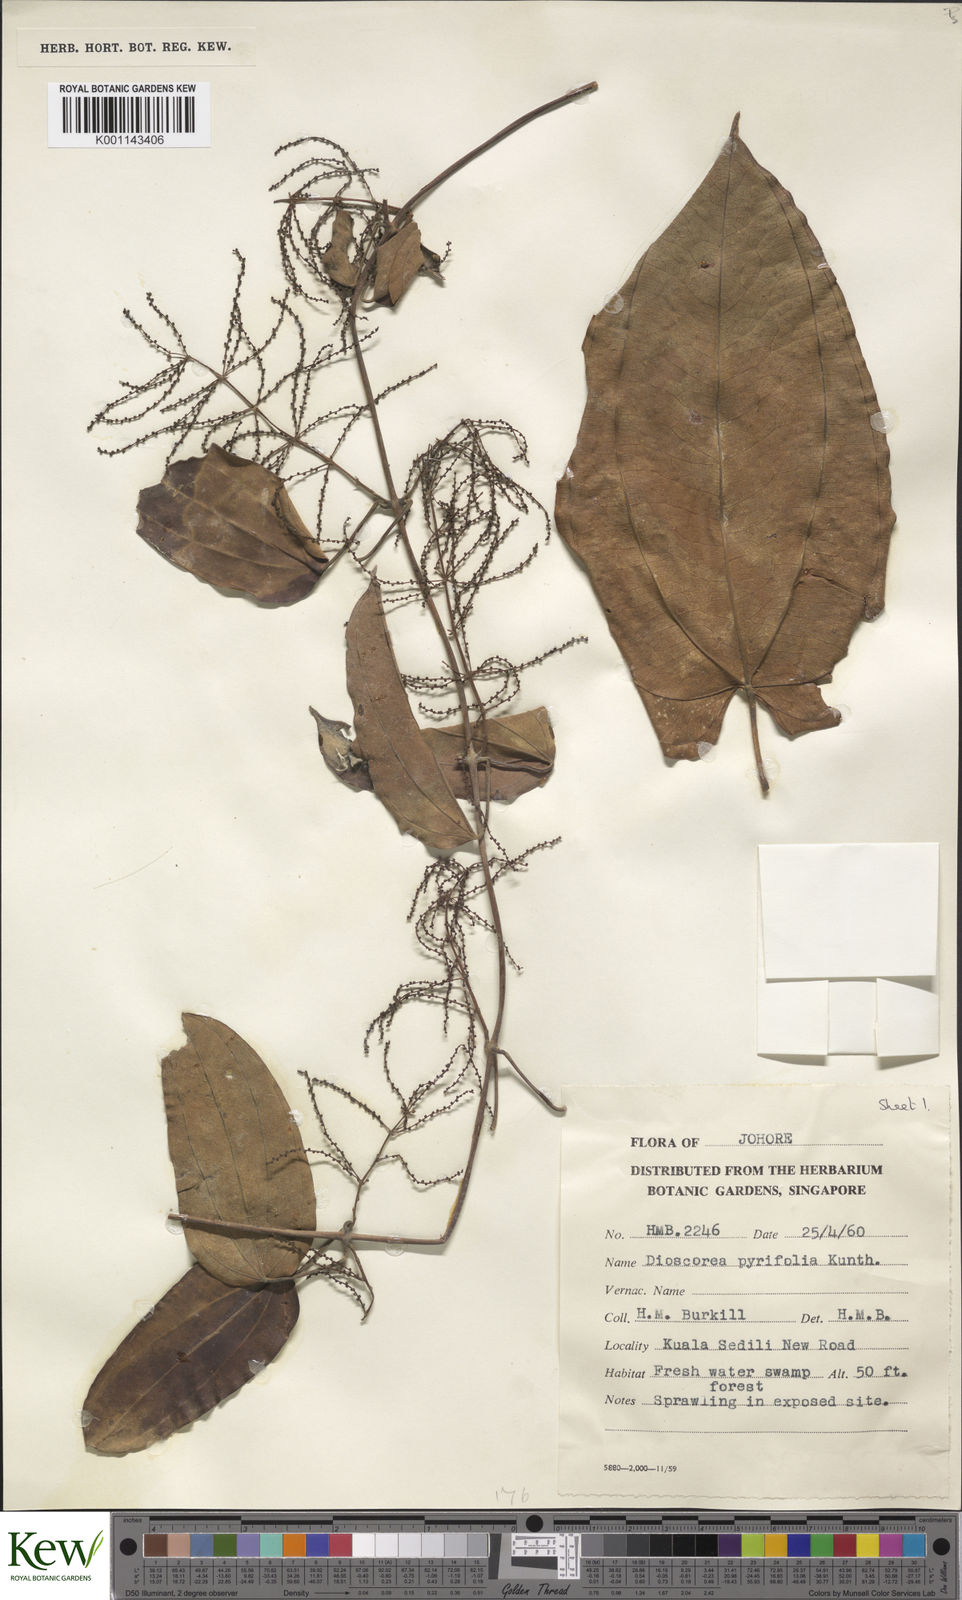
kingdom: Plantae
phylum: Tracheophyta
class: Liliopsida
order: Dioscoreales
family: Dioscoreaceae
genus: Dioscorea
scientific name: Dioscorea pyrifolia
